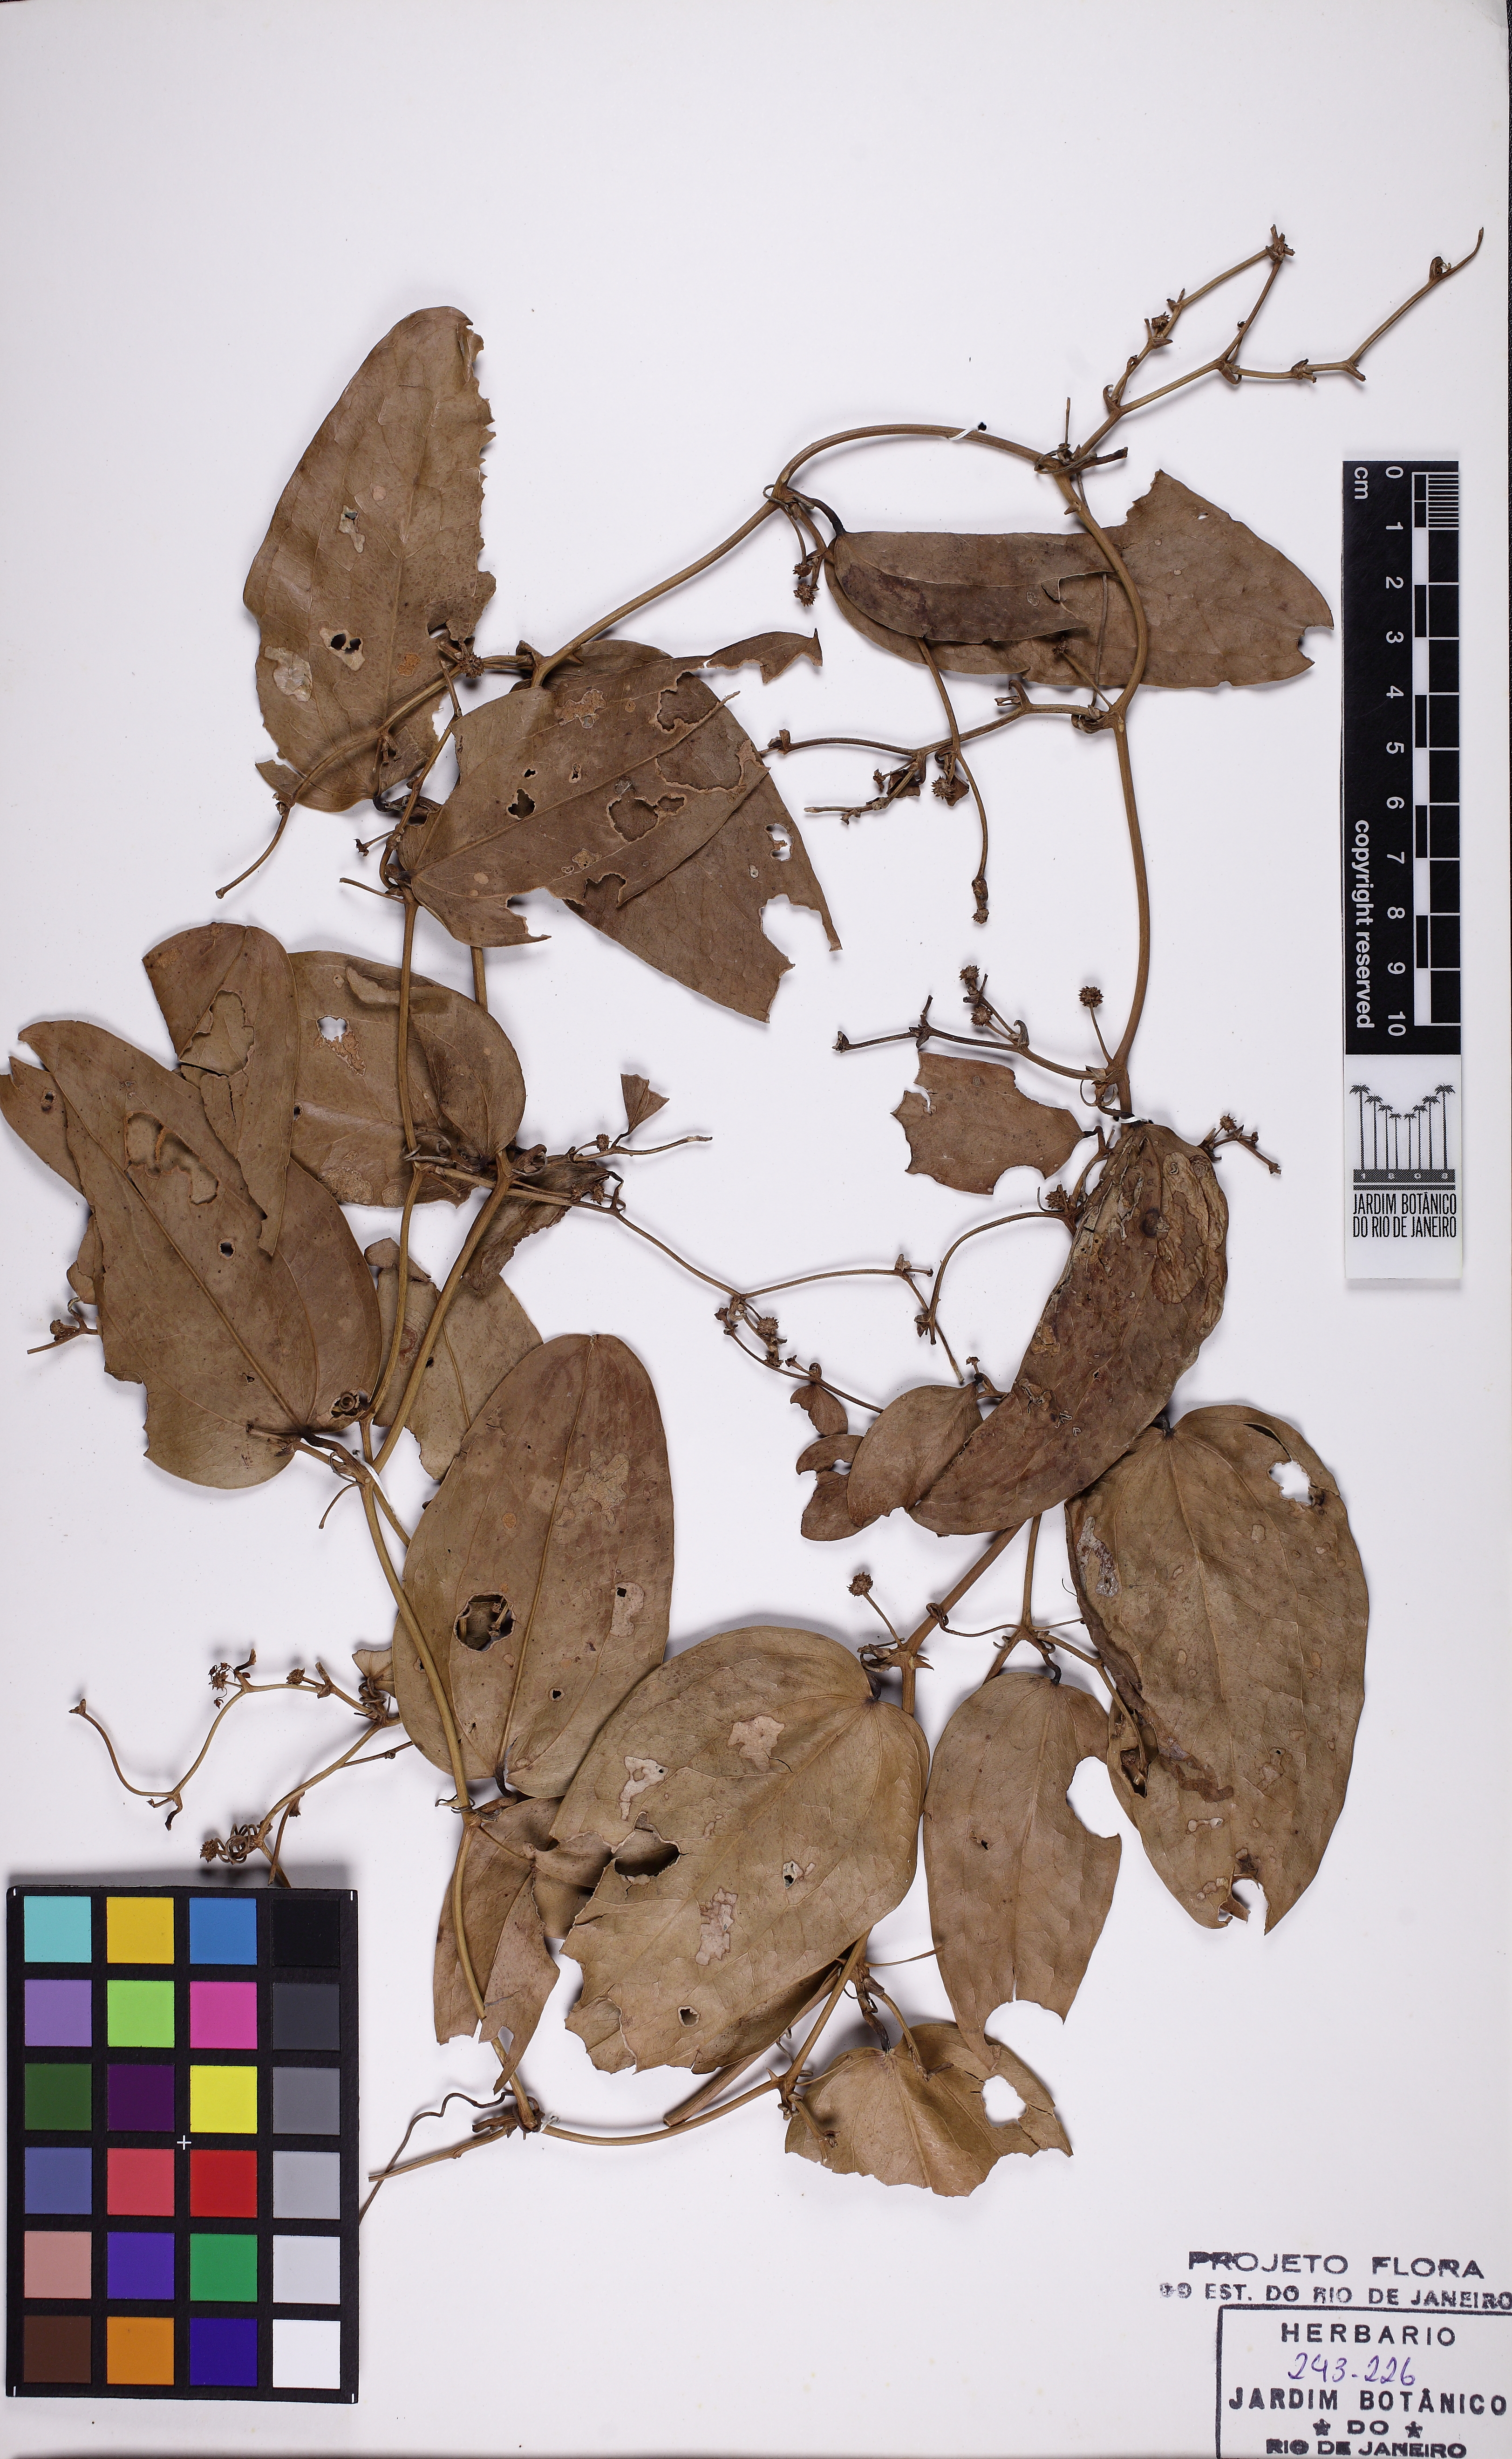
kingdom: Plantae
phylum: Tracheophyta
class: Liliopsida
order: Liliales
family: Smilacaceae
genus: Smilax
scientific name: Smilax elastica
